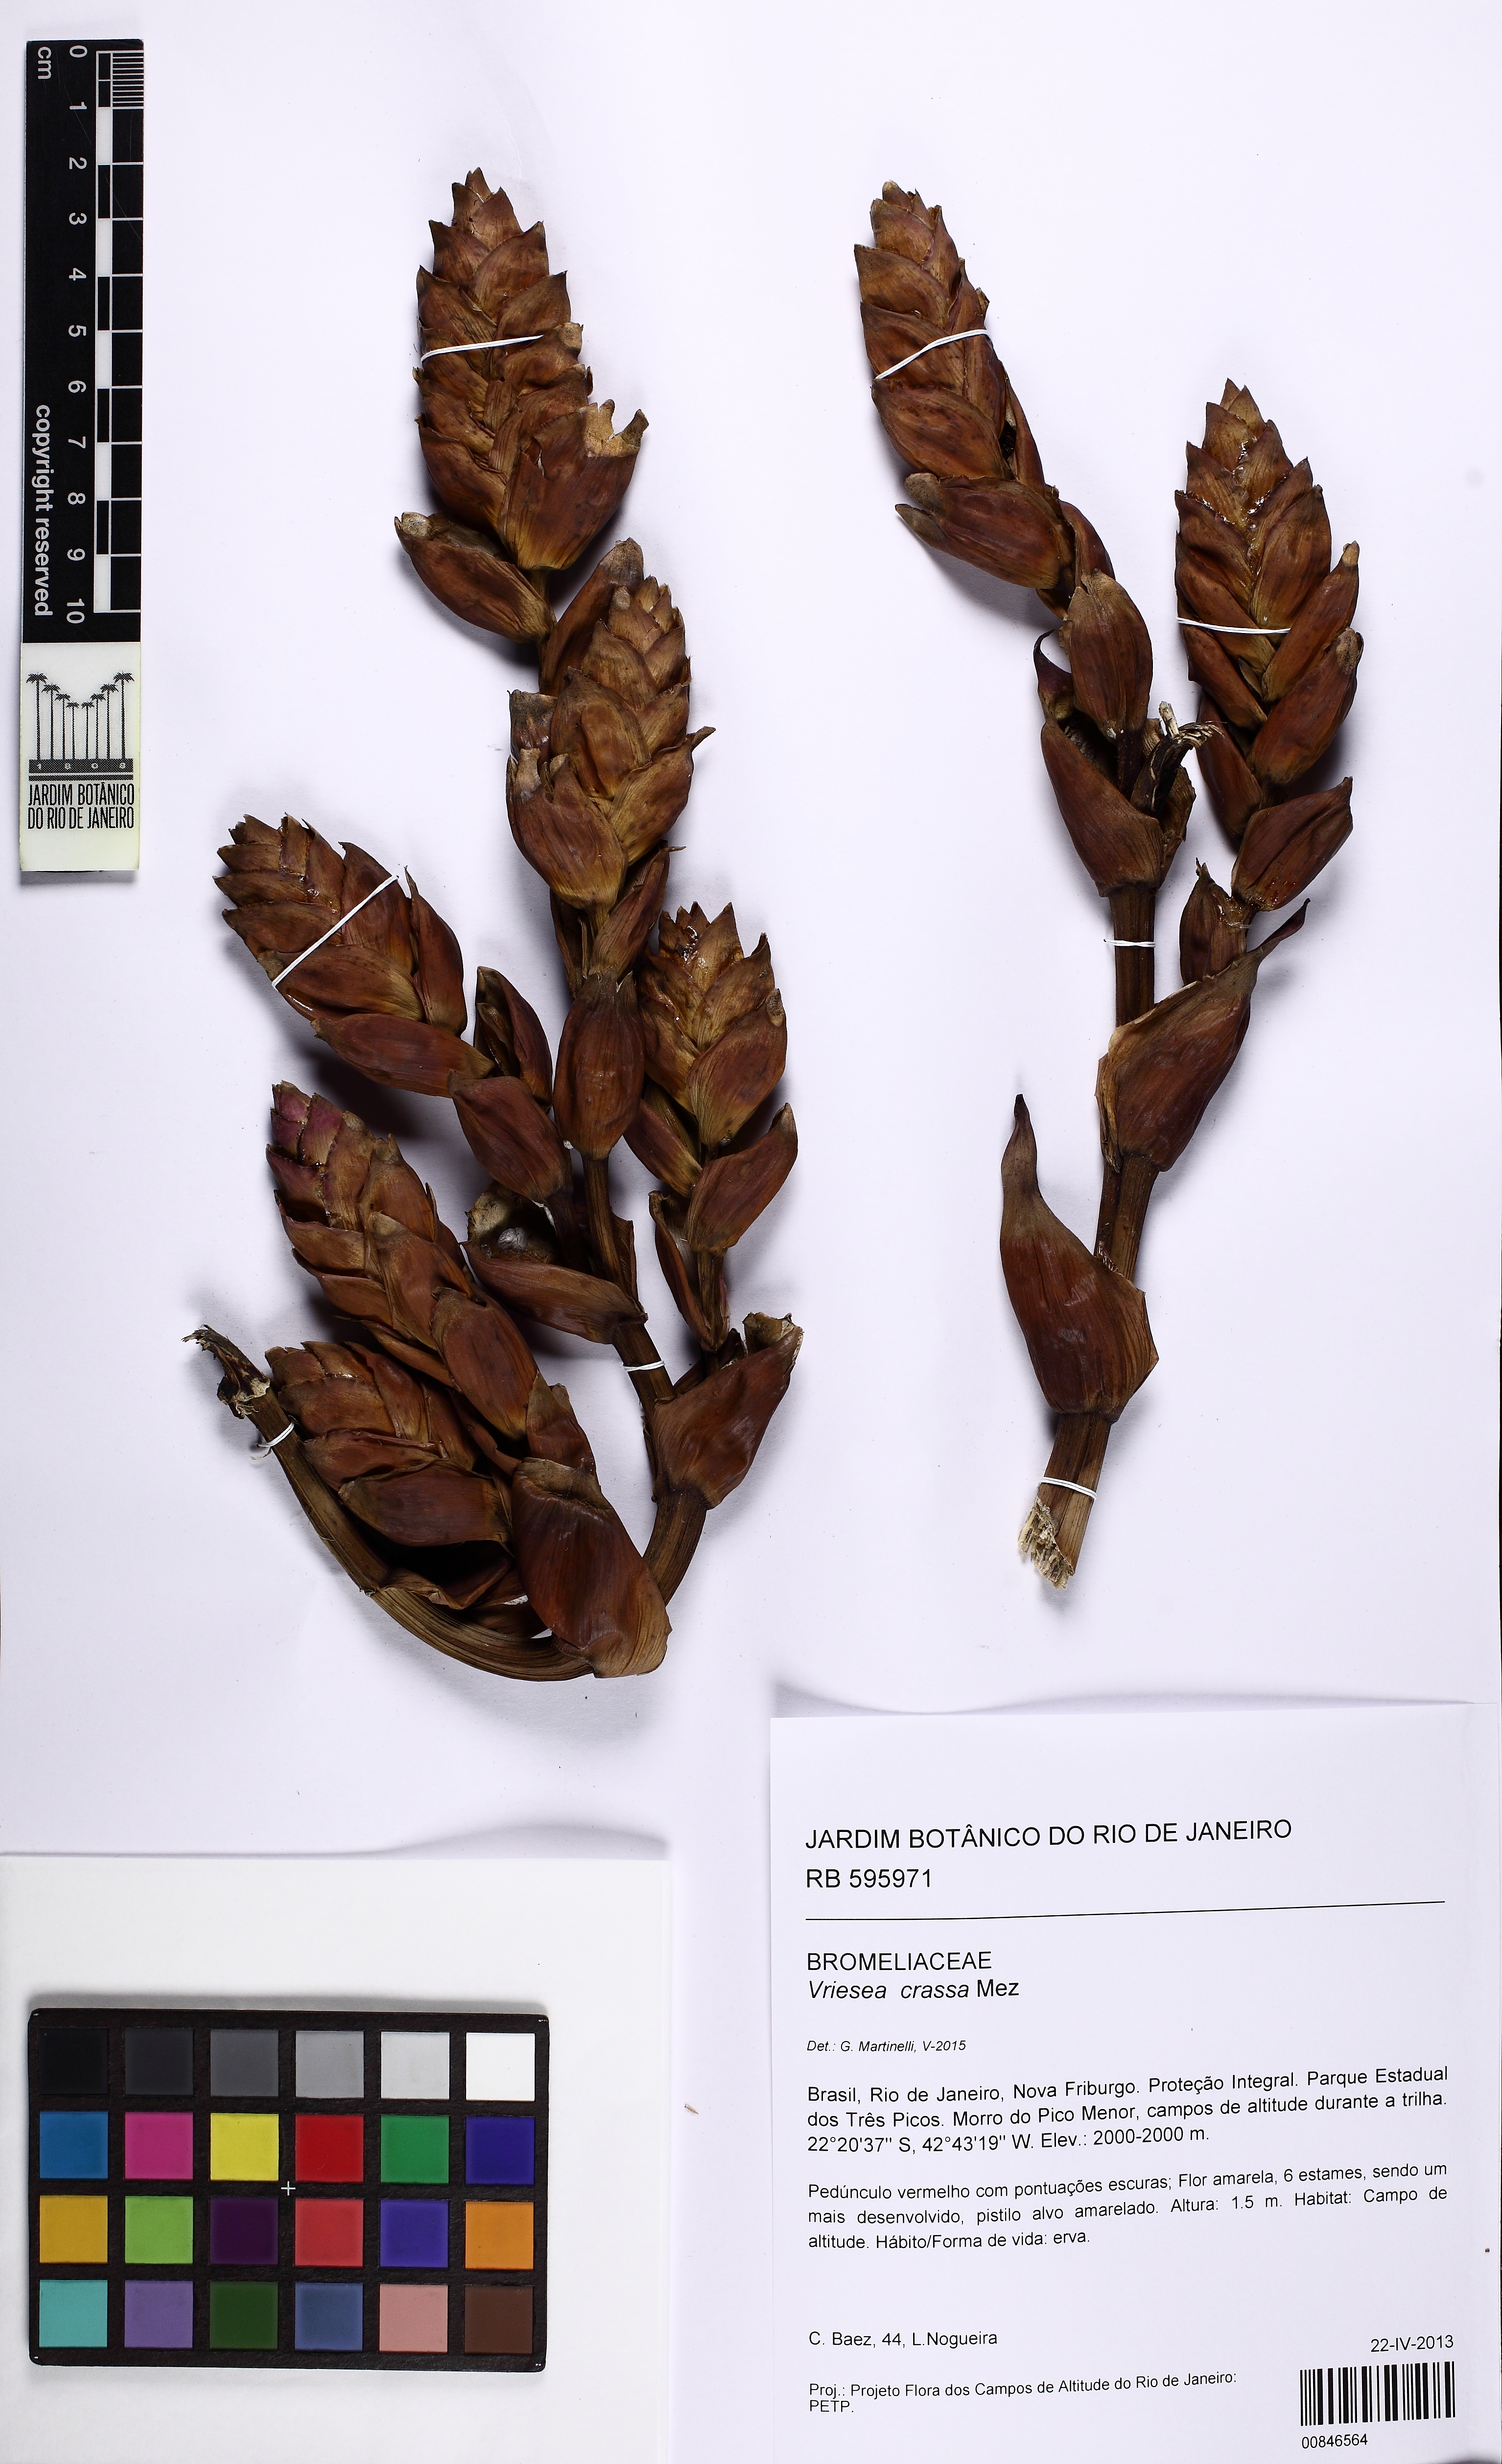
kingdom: Plantae
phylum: Tracheophyta
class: Liliopsida
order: Poales
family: Bromeliaceae
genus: Vriesea
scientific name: Vriesea crassa
